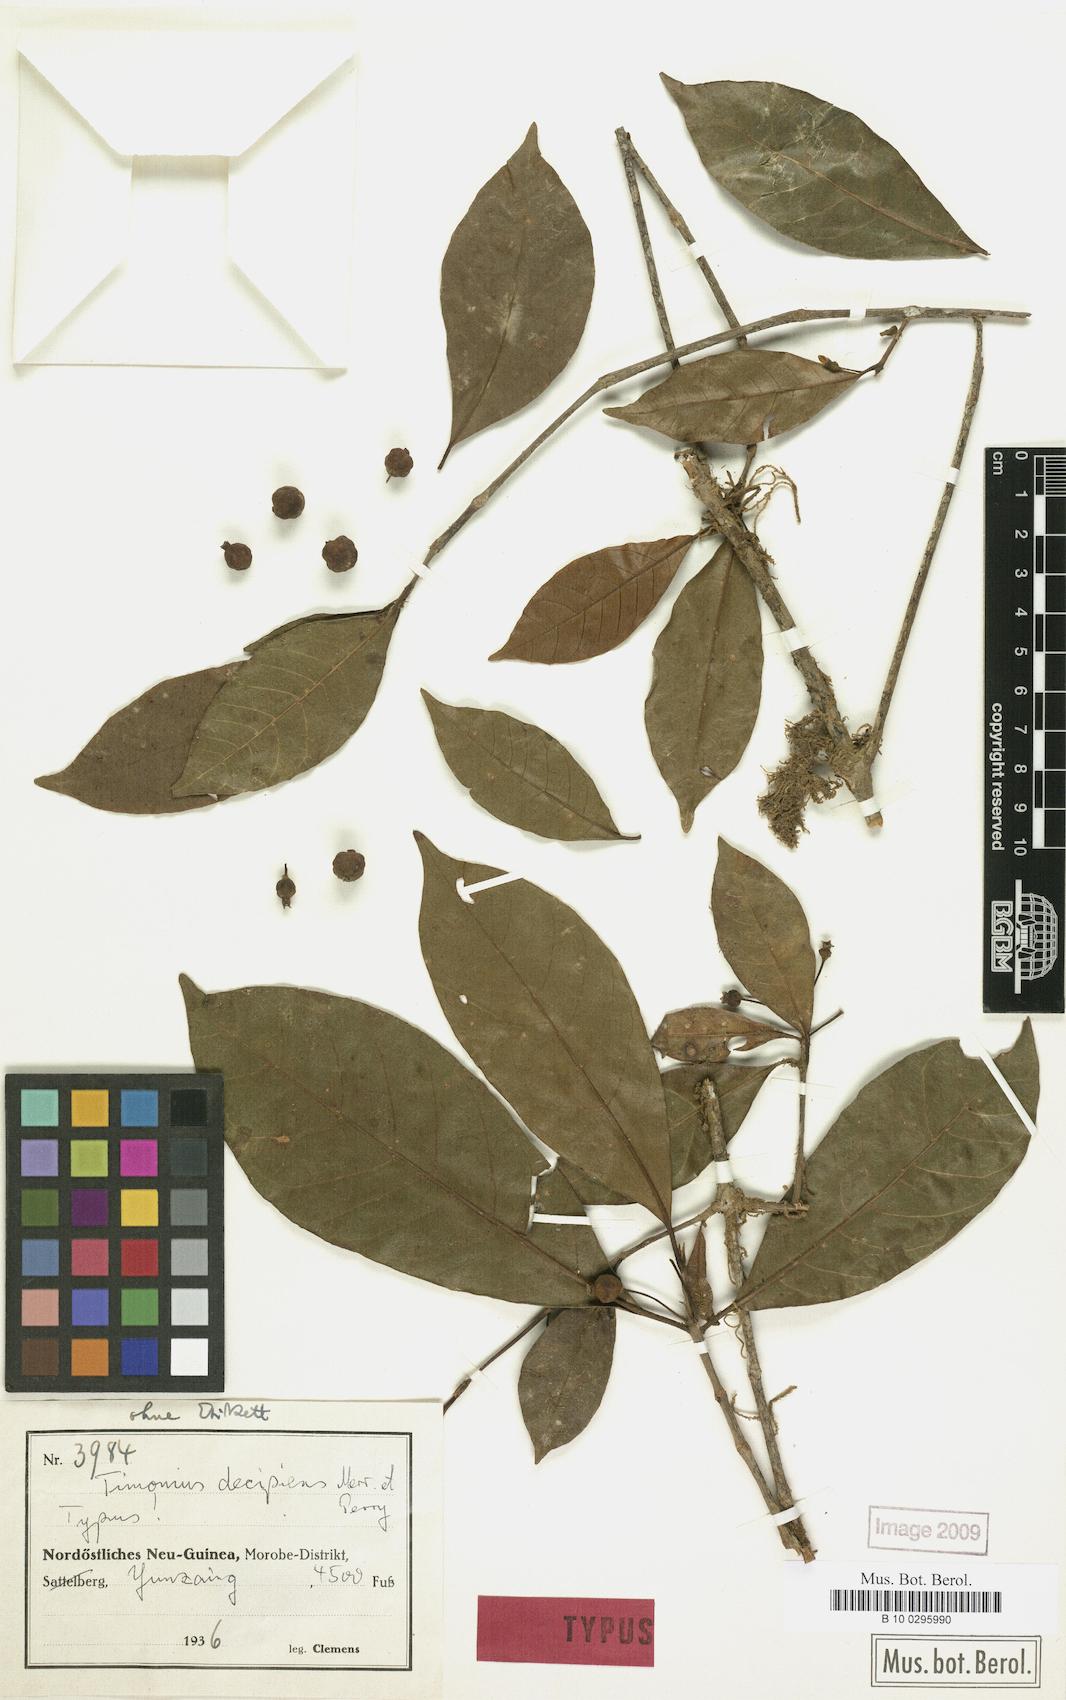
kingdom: Plantae
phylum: Tracheophyta
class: Magnoliopsida
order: Gentianales
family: Rubiaceae
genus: Timonius
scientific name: Timonius decipiens
